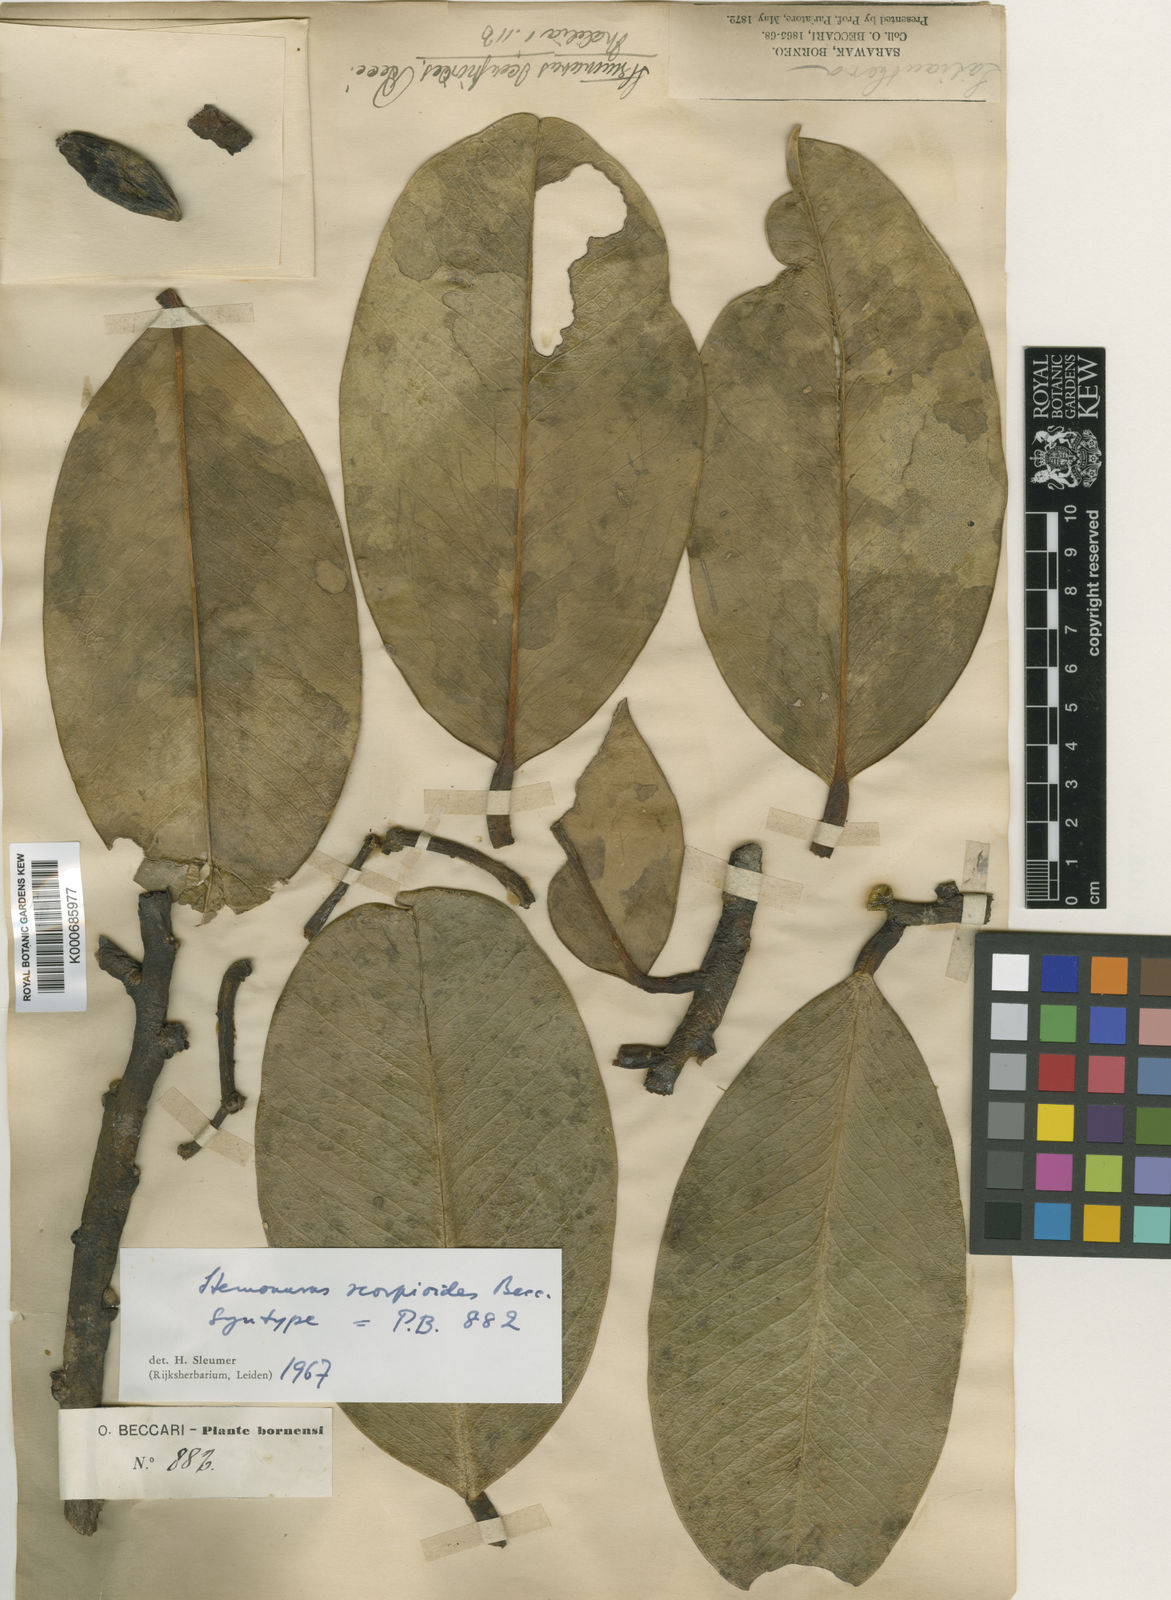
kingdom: Plantae
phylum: Tracheophyta
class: Magnoliopsida
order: Cardiopteridales
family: Stemonuraceae
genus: Stemonurus
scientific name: Stemonurus scorpioides
